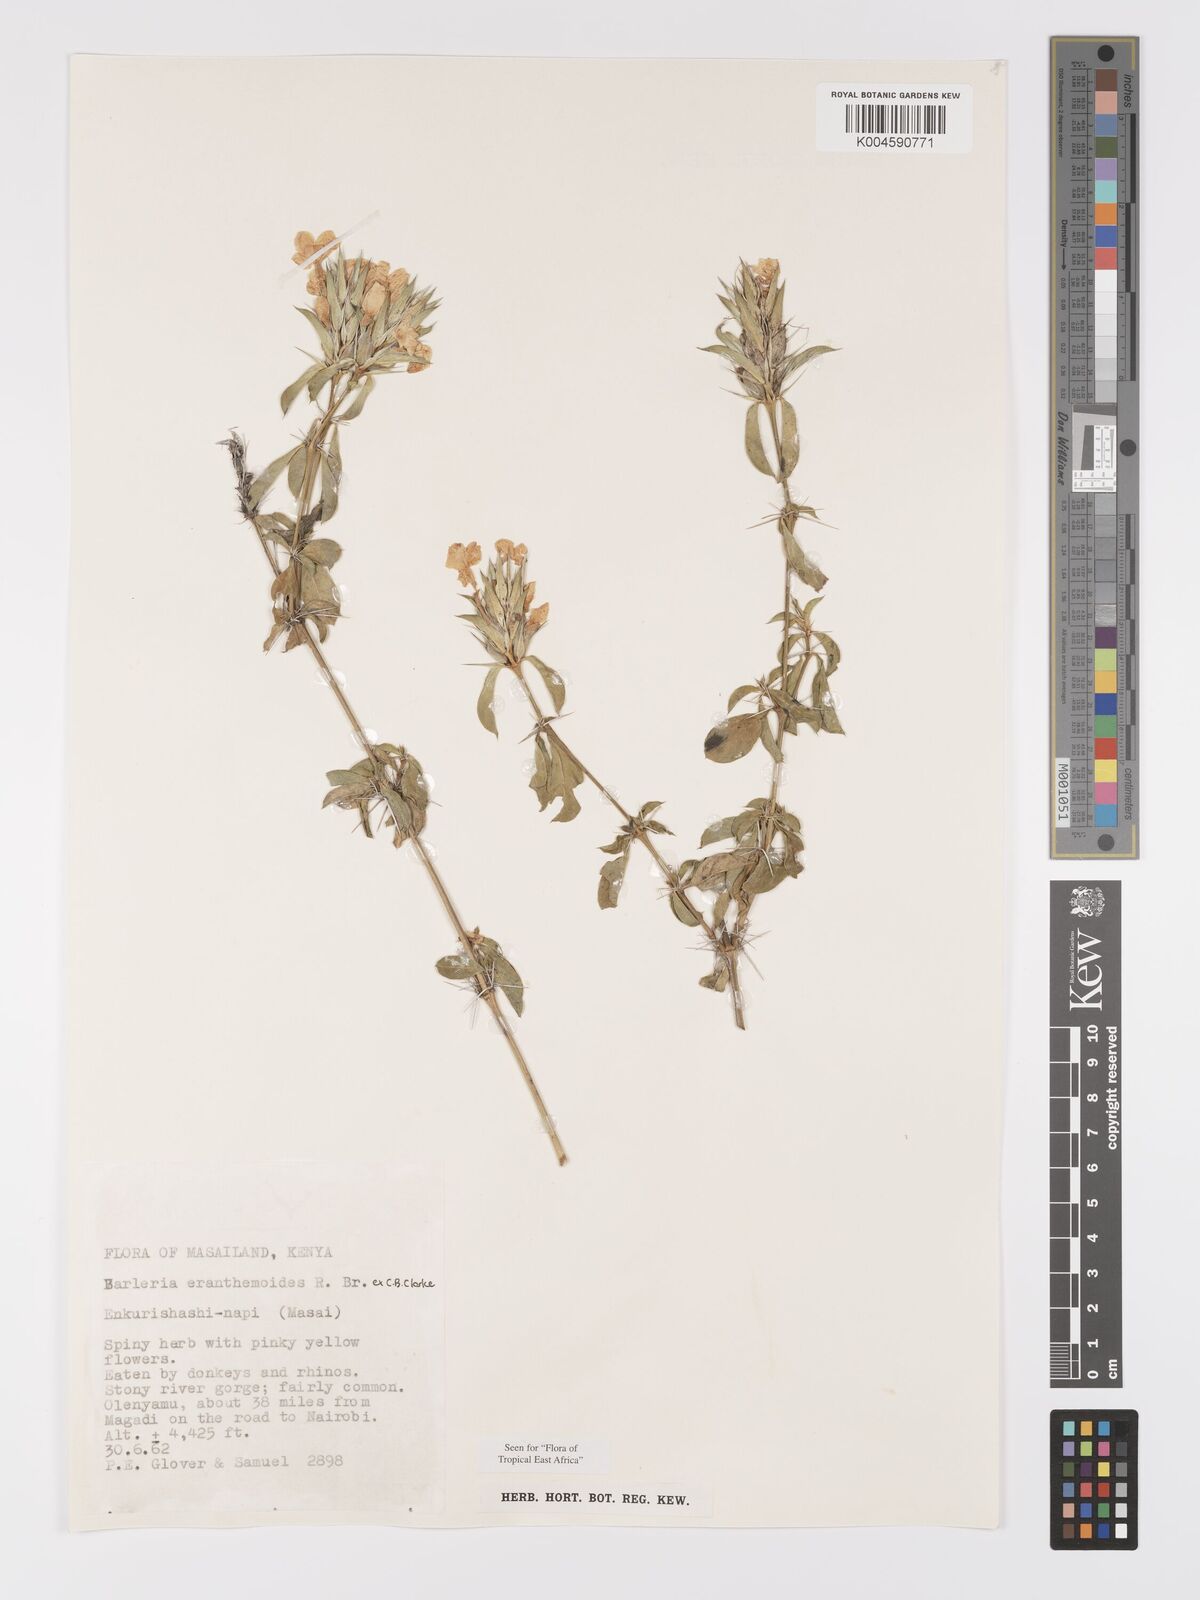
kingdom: Plantae
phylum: Tracheophyta
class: Magnoliopsida
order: Lamiales
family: Acanthaceae
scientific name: Acanthaceae
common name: Acanthaceae
